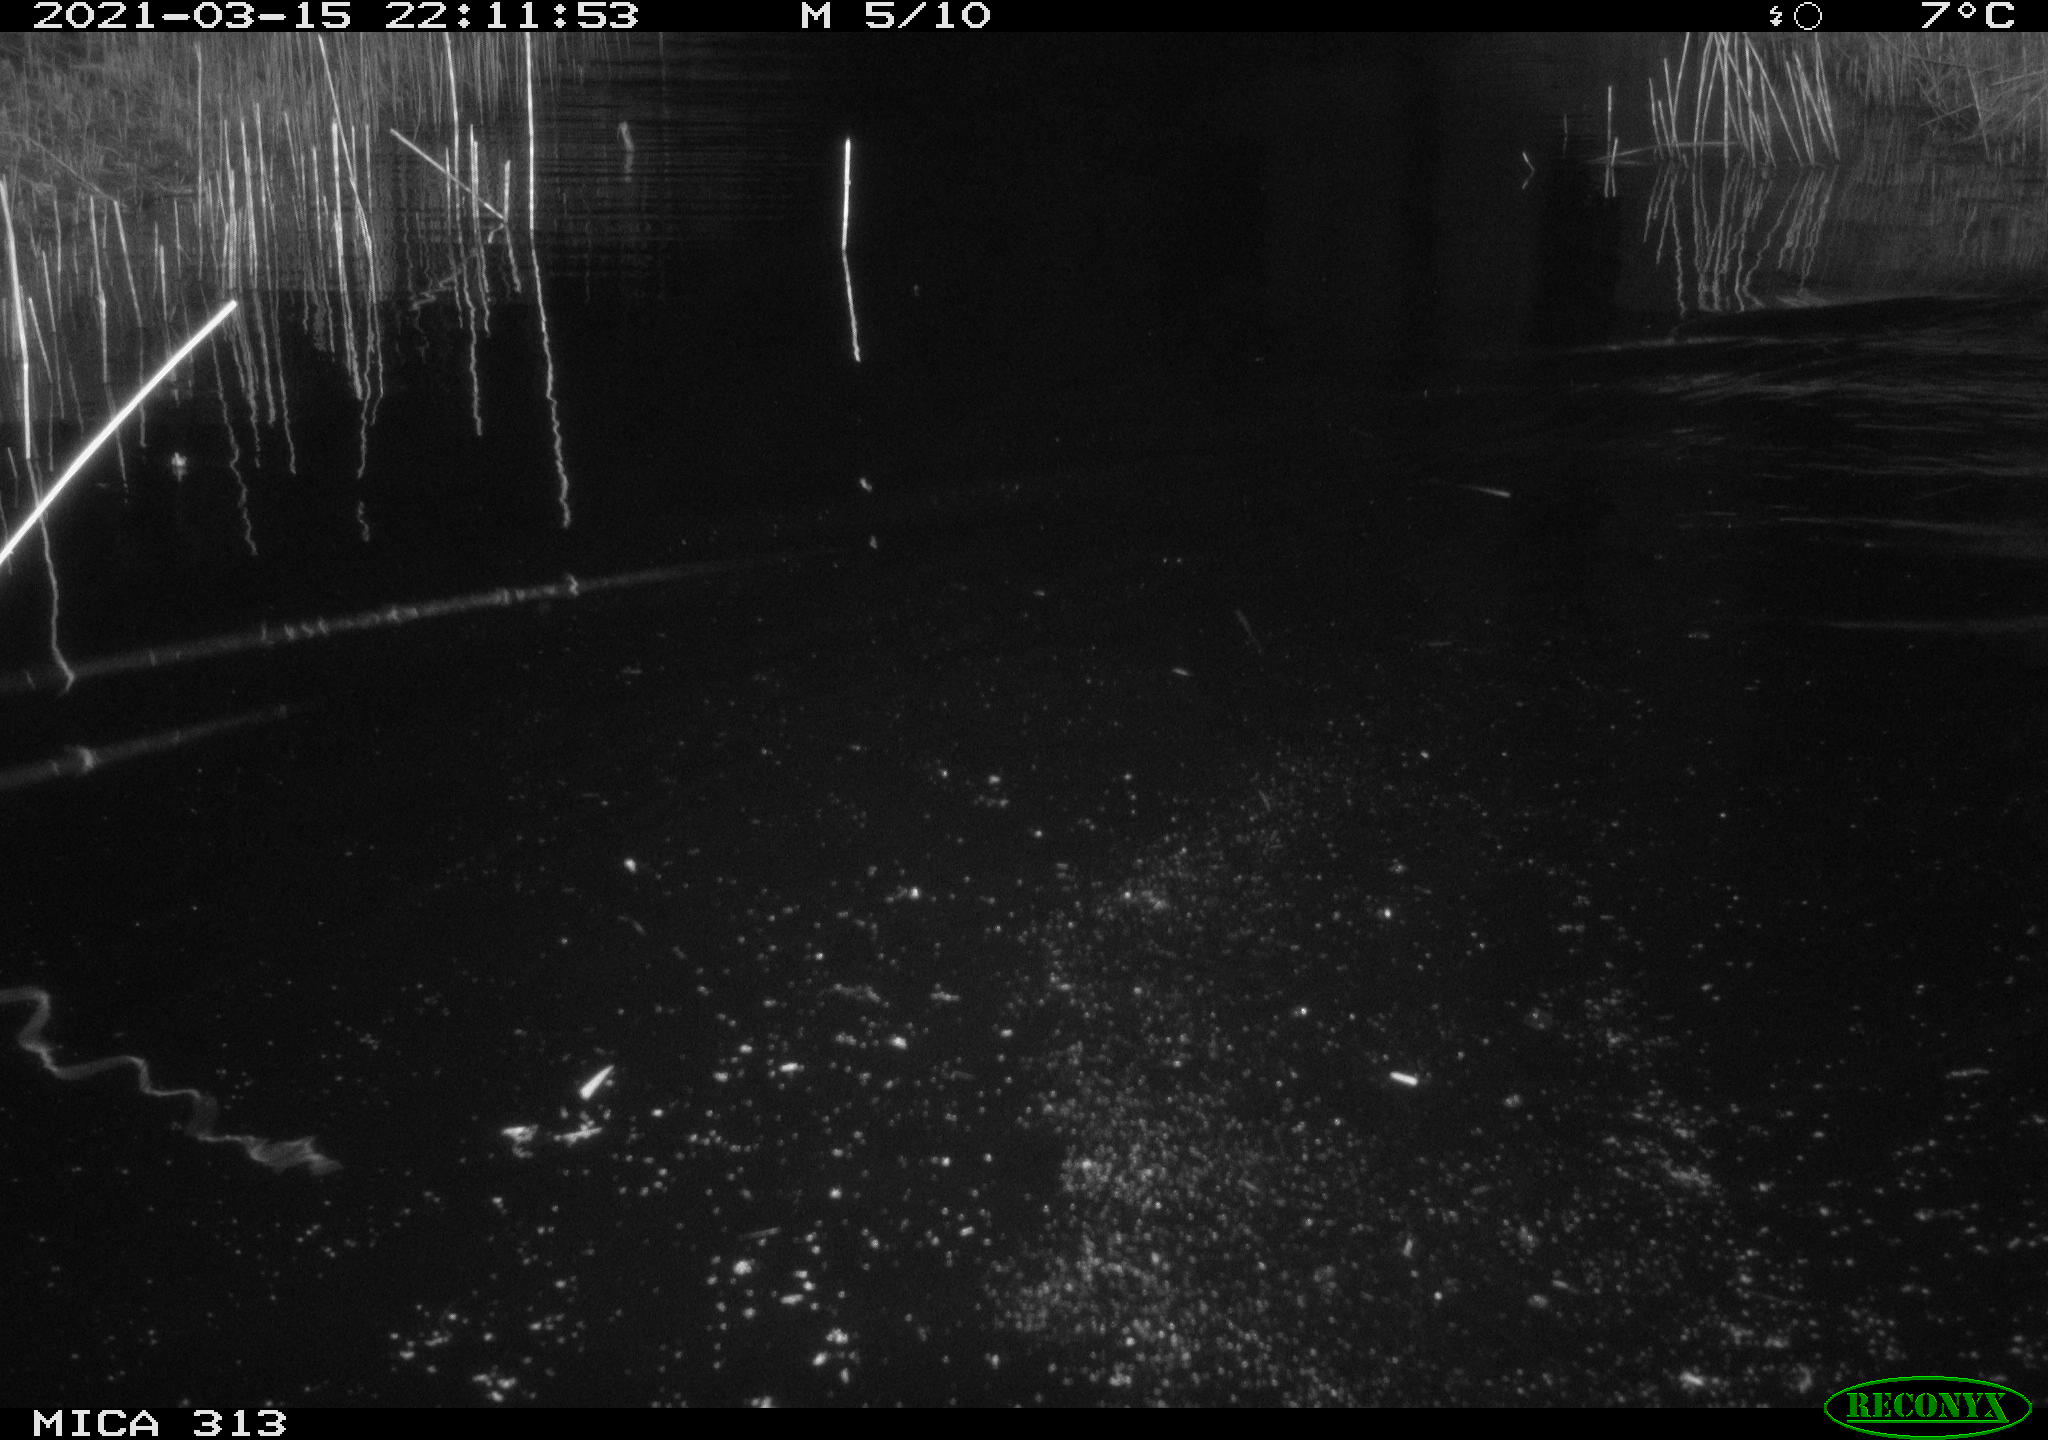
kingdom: Animalia
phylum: Chordata
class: Mammalia
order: Rodentia
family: Cricetidae
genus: Ondatra
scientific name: Ondatra zibethicus
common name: Muskrat
